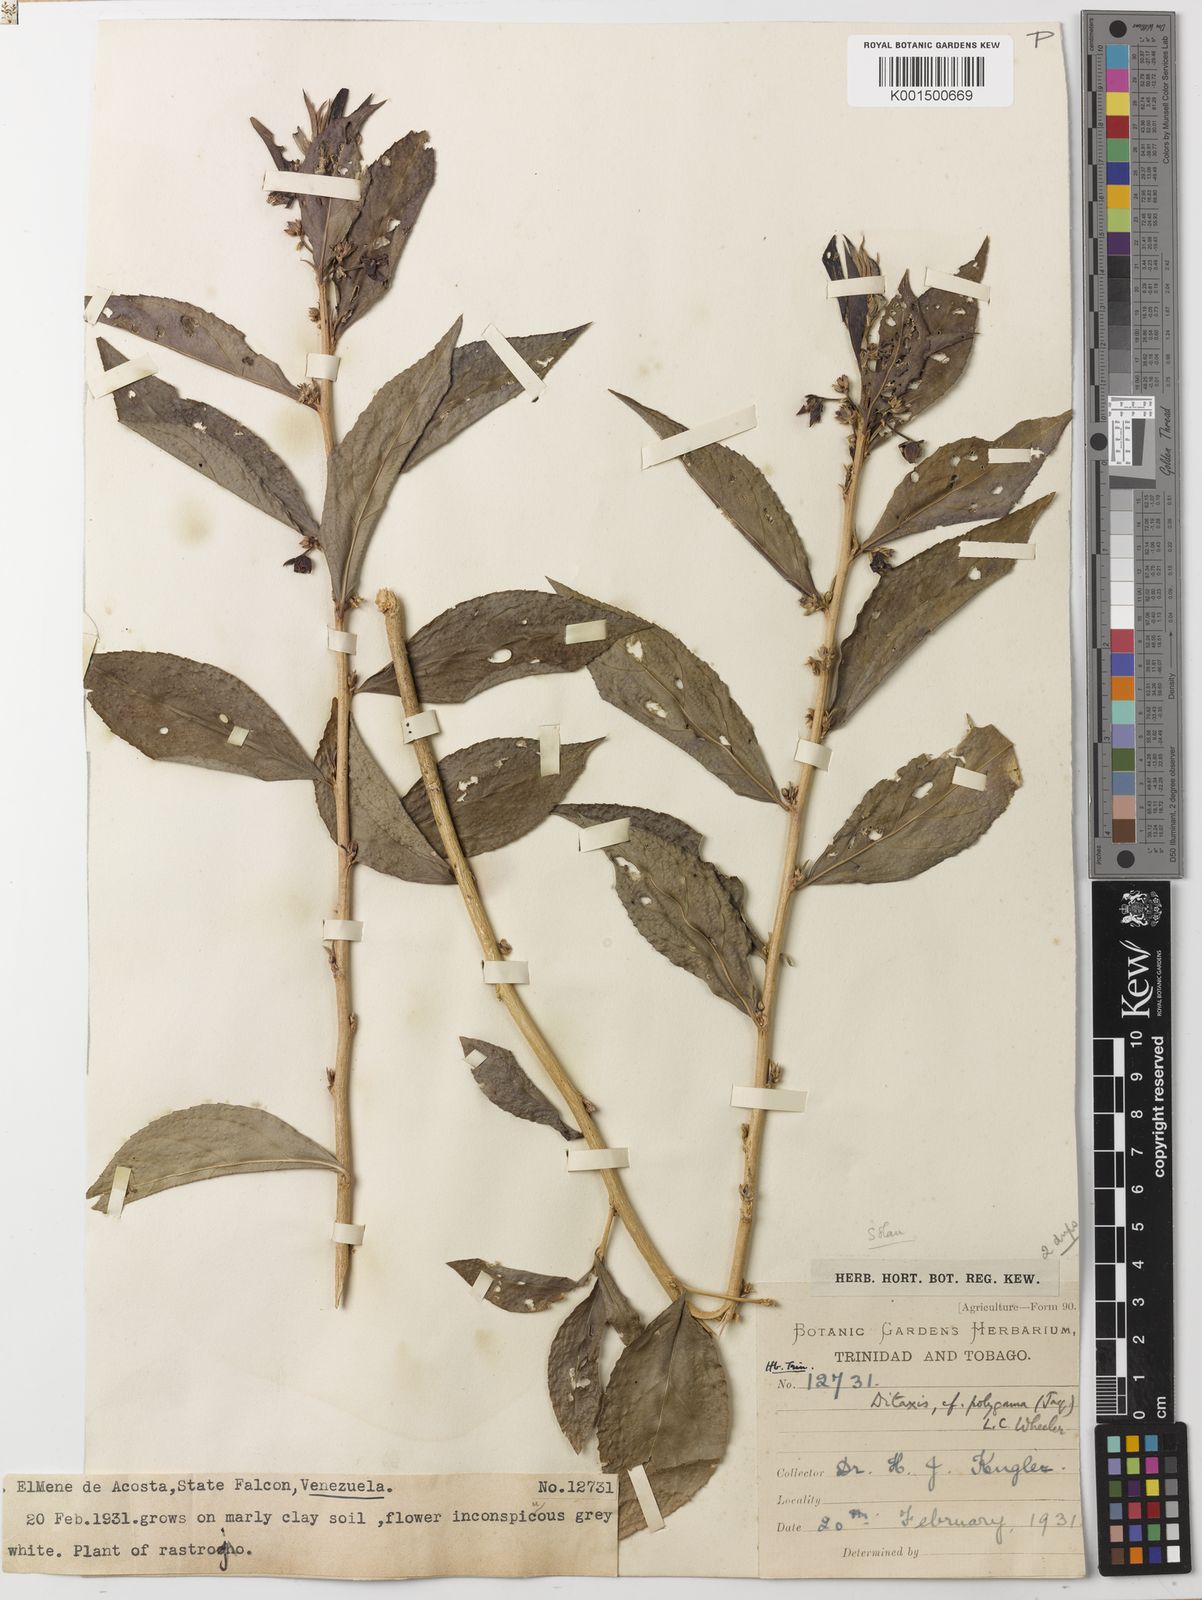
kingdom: Plantae
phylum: Tracheophyta
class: Magnoliopsida
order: Malpighiales
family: Euphorbiaceae
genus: Ditaxis
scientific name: Ditaxis polygama
